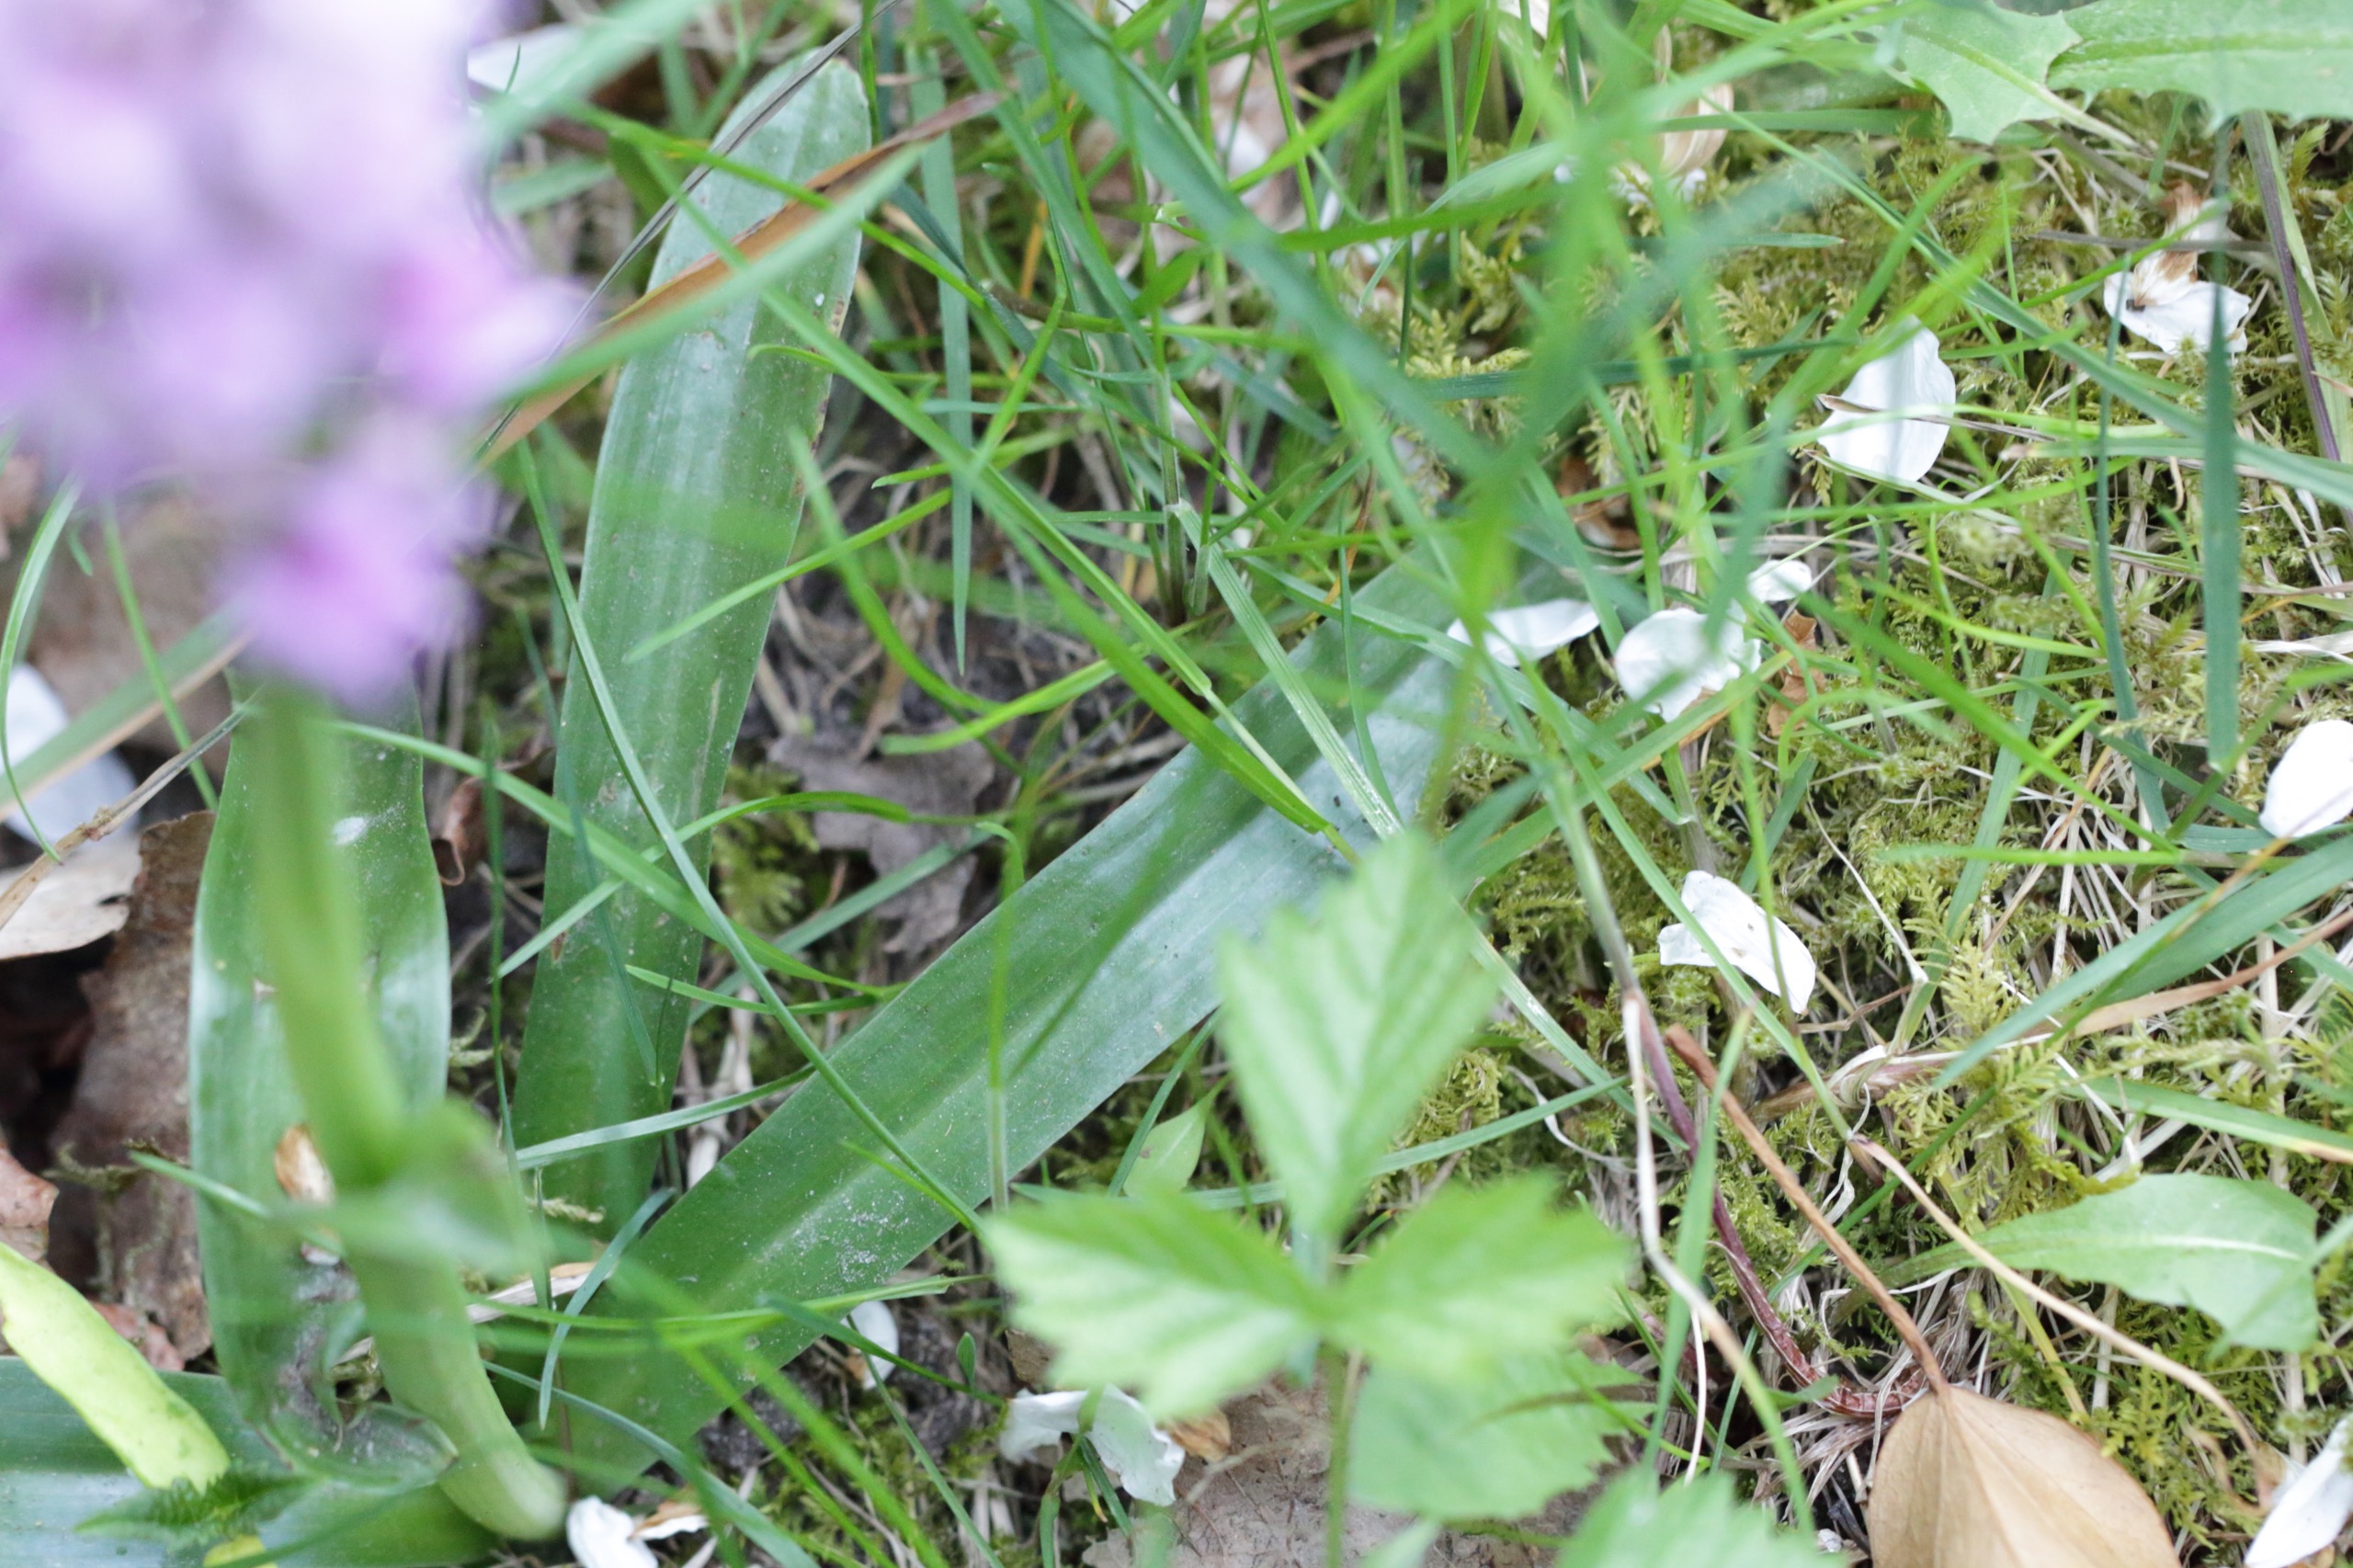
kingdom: Plantae
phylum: Tracheophyta
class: Liliopsida
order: Asparagales
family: Orchidaceae
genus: Orchis
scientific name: Orchis mascula
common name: Tyndakset gøgeurt
